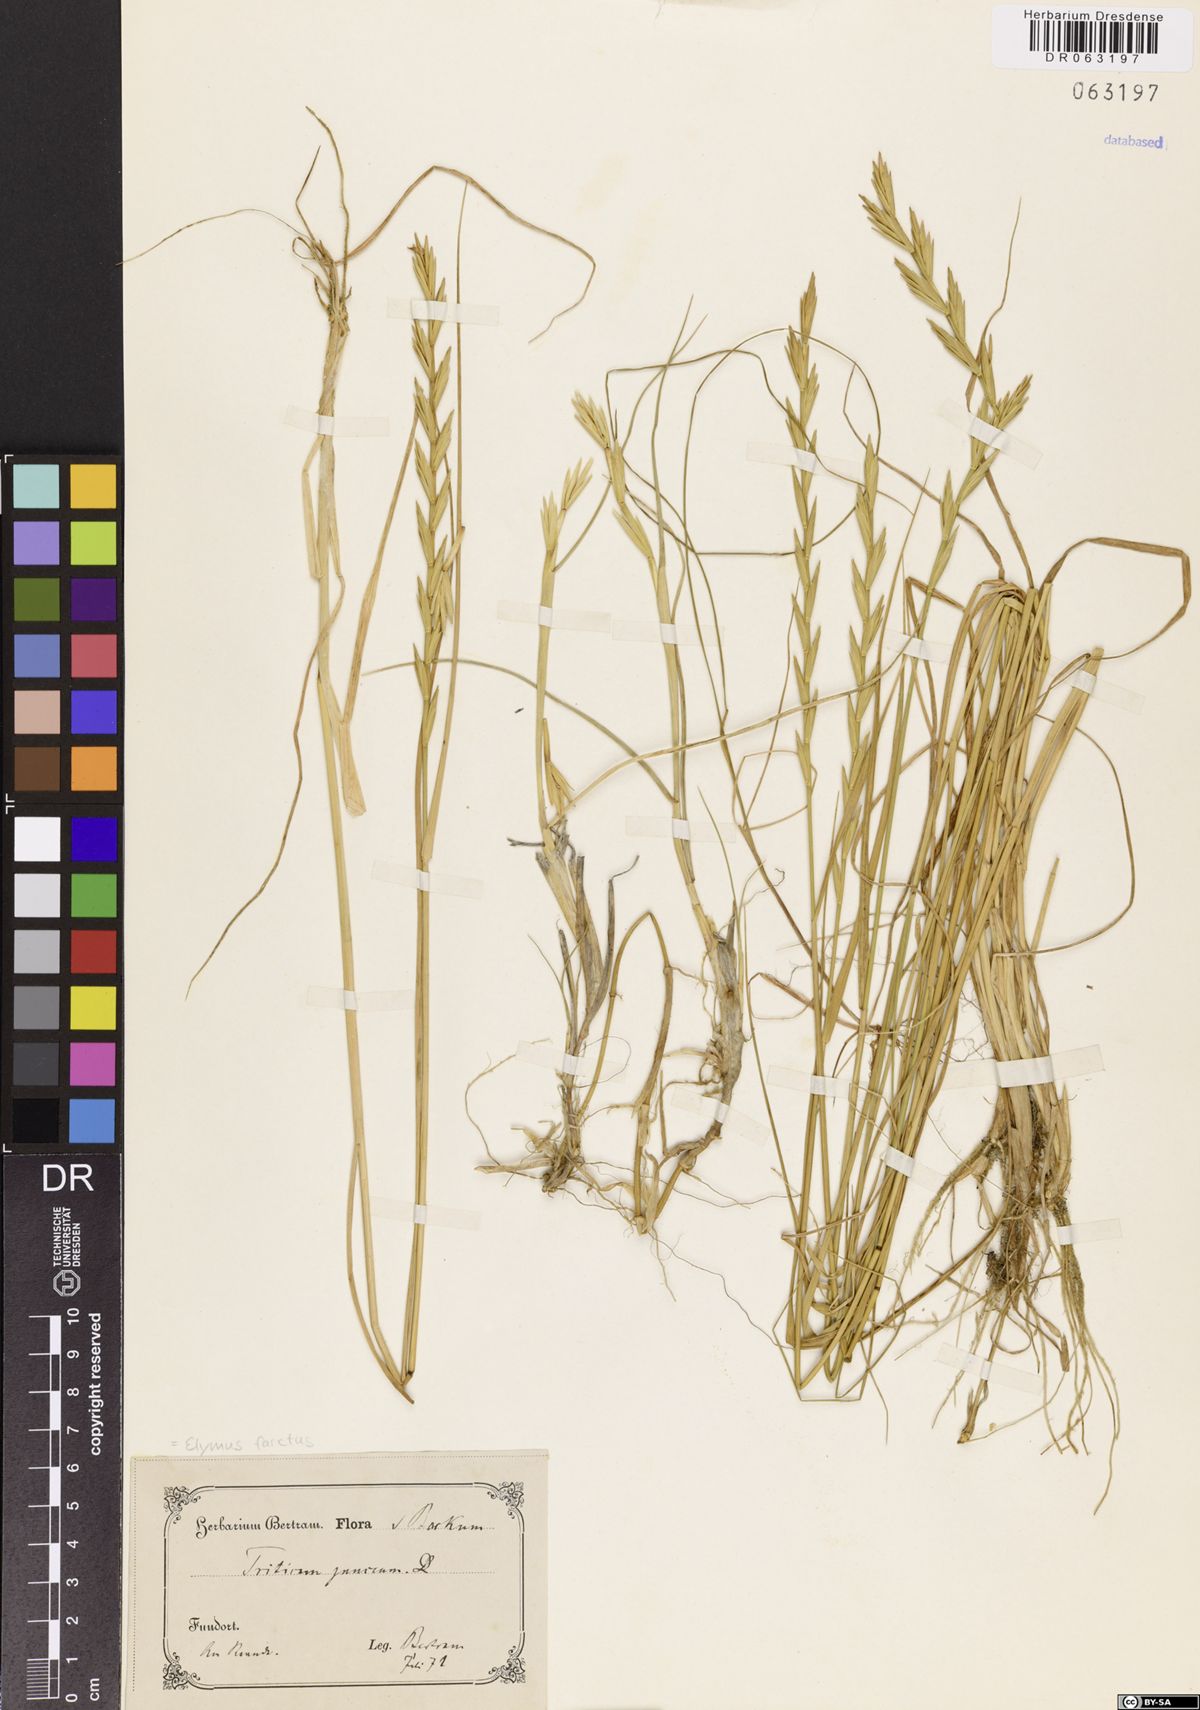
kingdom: Plantae
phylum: Tracheophyta
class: Liliopsida
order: Poales
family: Poaceae
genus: Thinopyrum
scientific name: Thinopyrum junceum
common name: Russian wheatgrass
